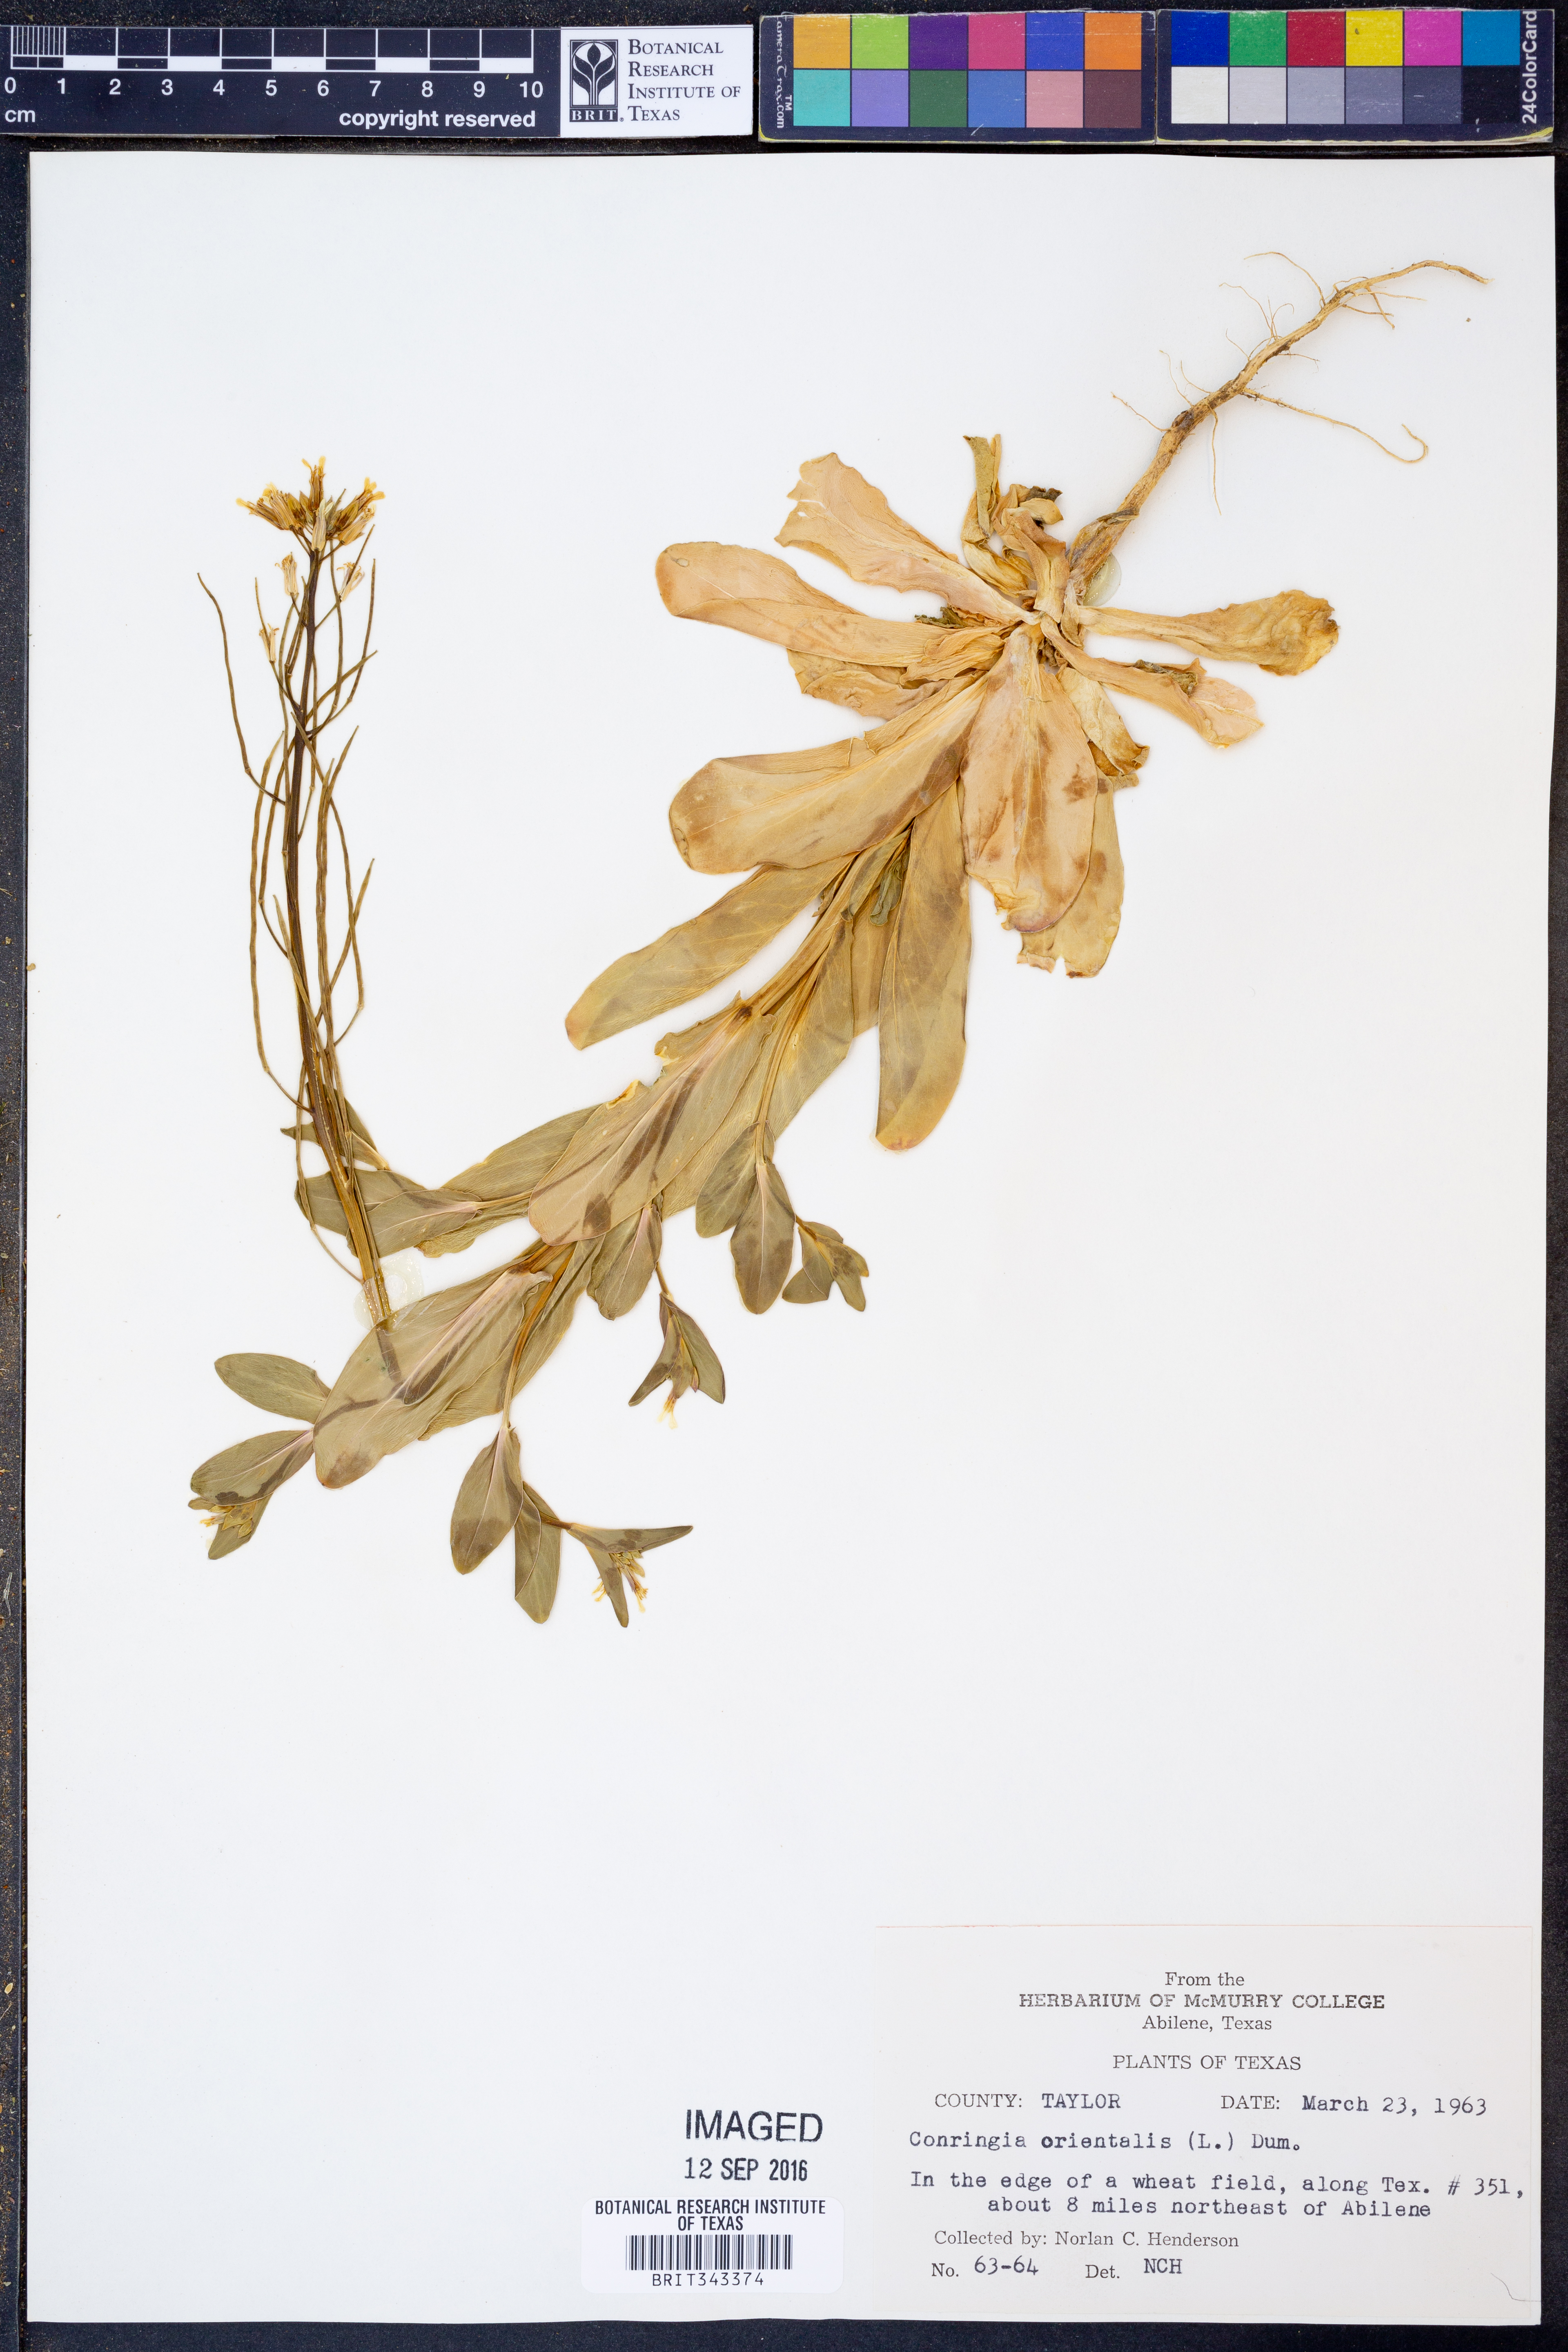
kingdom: Plantae
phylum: Tracheophyta
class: Magnoliopsida
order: Brassicales
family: Brassicaceae
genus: Conringia
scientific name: Conringia orientalis
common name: Hare's ear mustard
